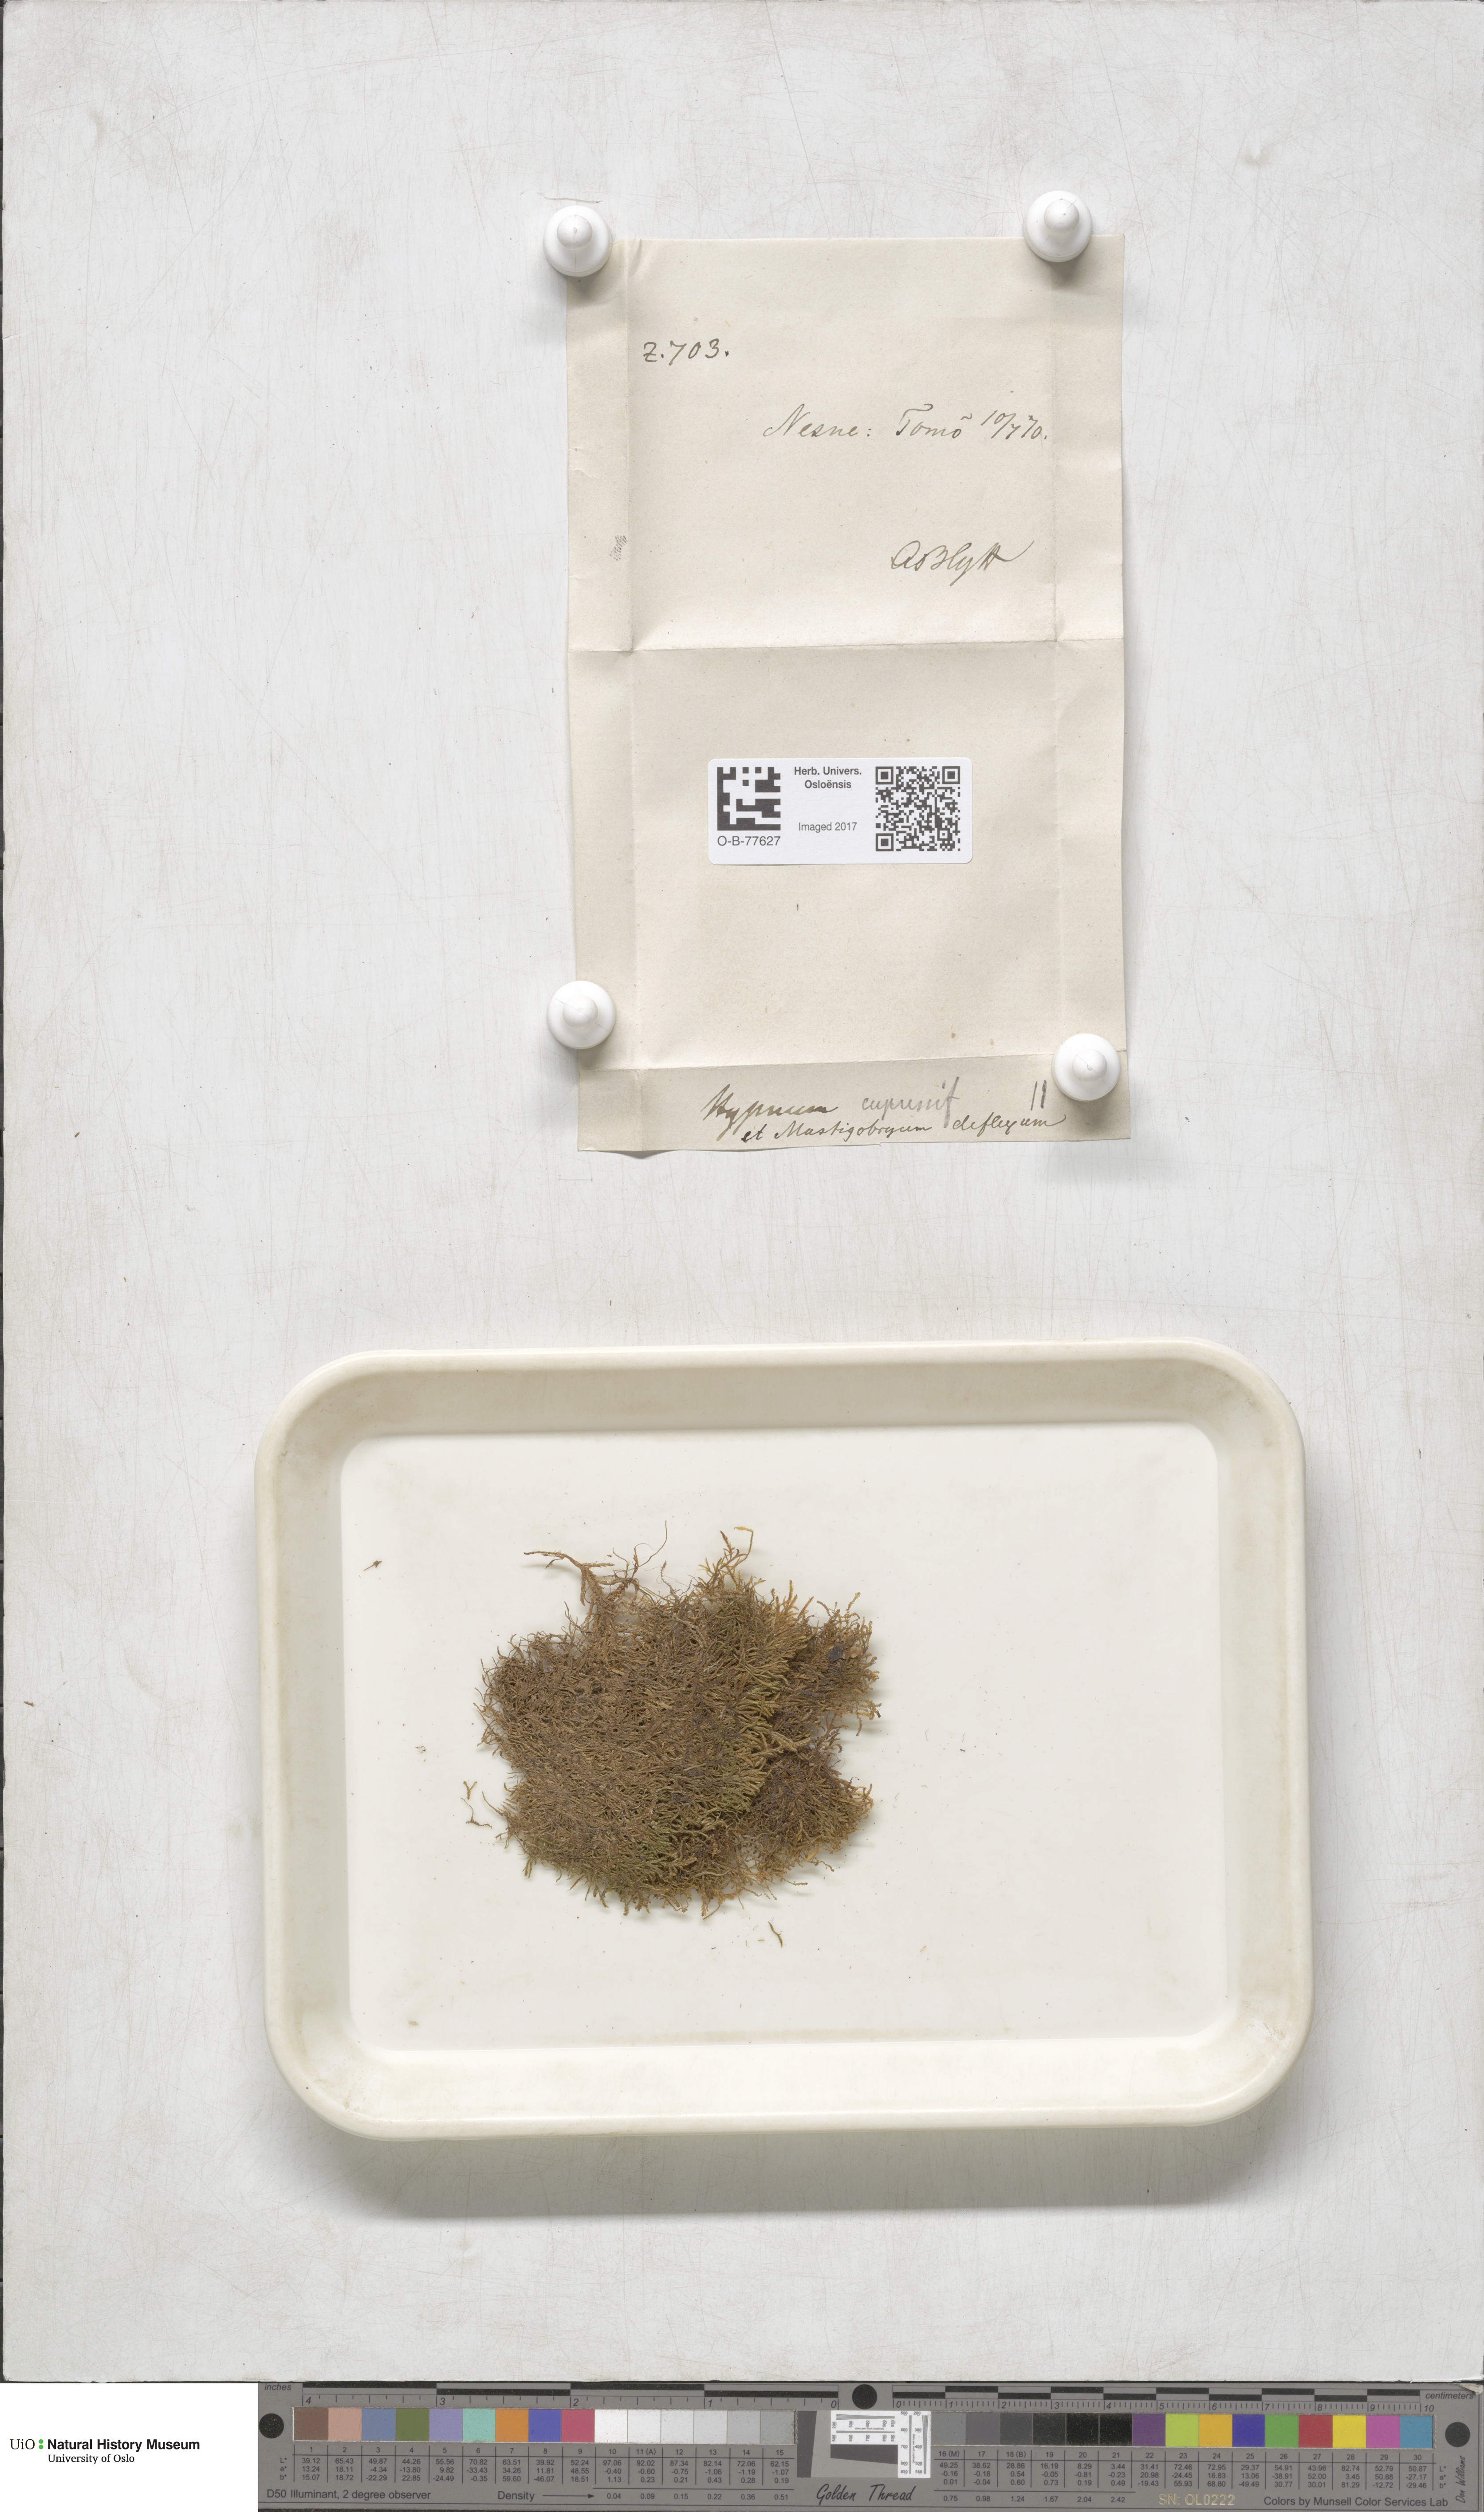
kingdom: Plantae
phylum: Bryophyta
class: Bryopsida
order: Hypnales
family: Hypnaceae
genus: Hypnum
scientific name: Hypnum cupressiforme
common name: Cypress-leaved plait-moss
